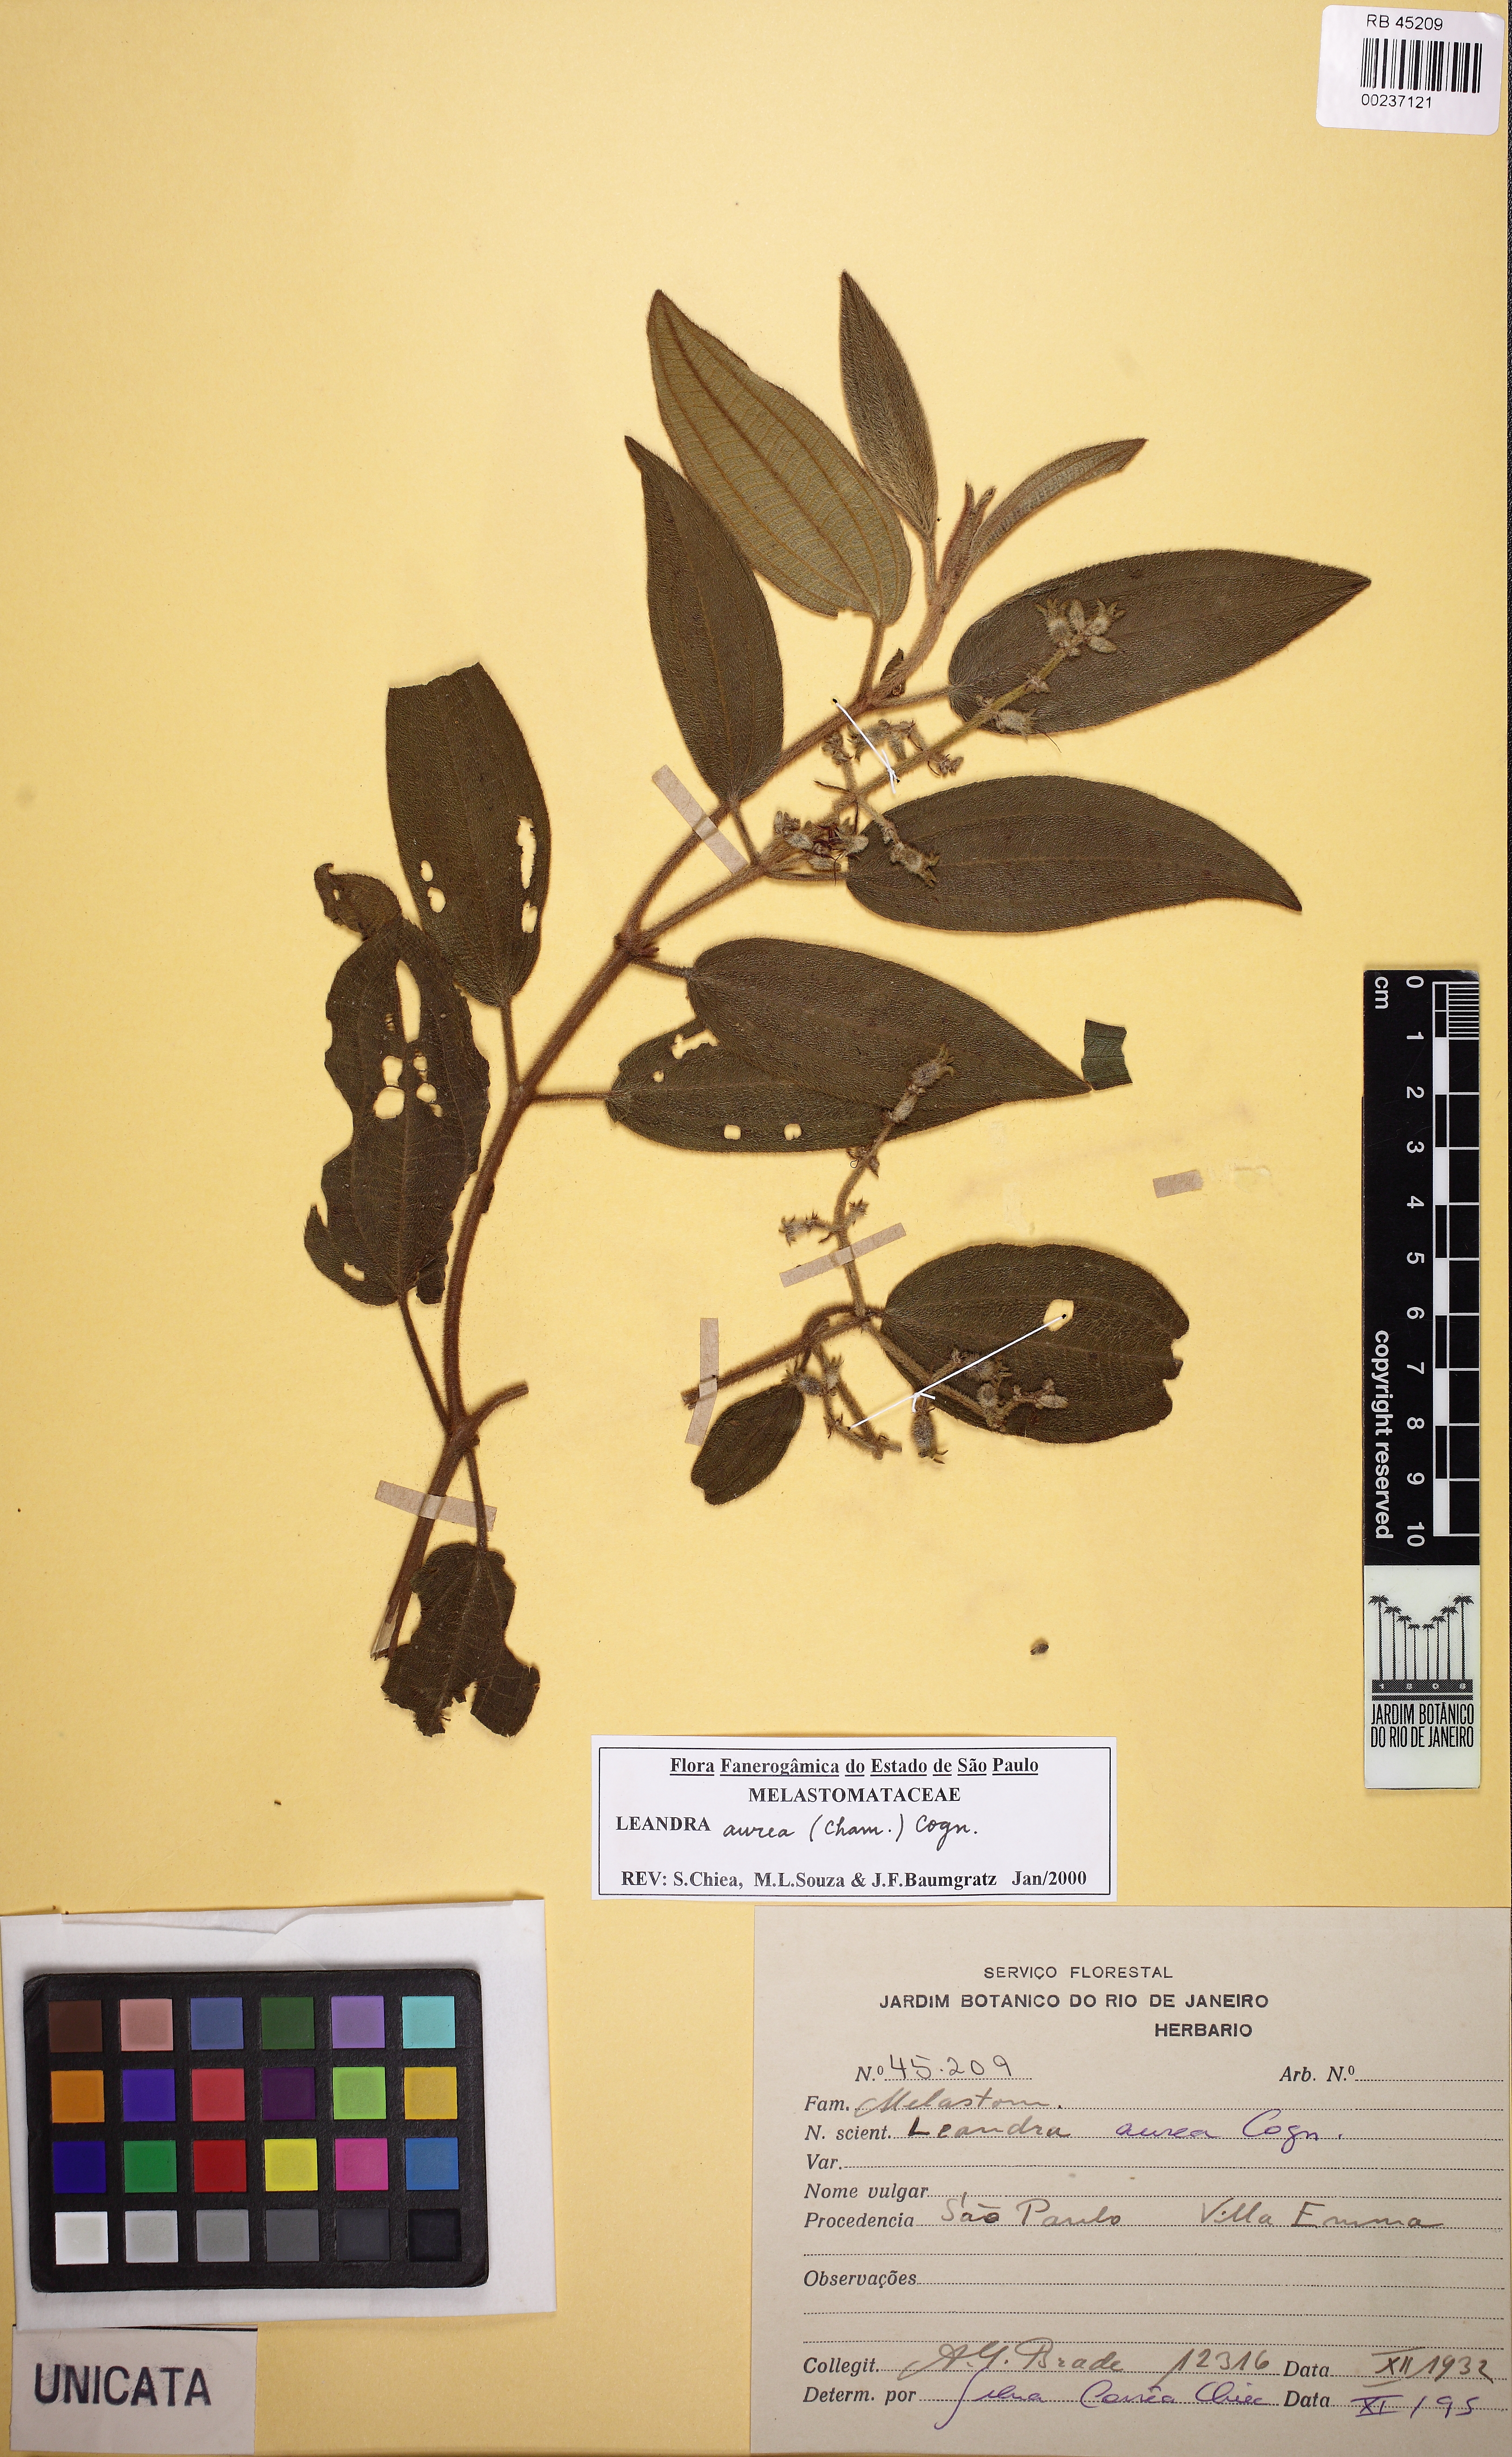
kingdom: Plantae
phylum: Tracheophyta
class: Magnoliopsida
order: Myrtales
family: Melastomataceae
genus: Miconia
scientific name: Miconia auricoma
